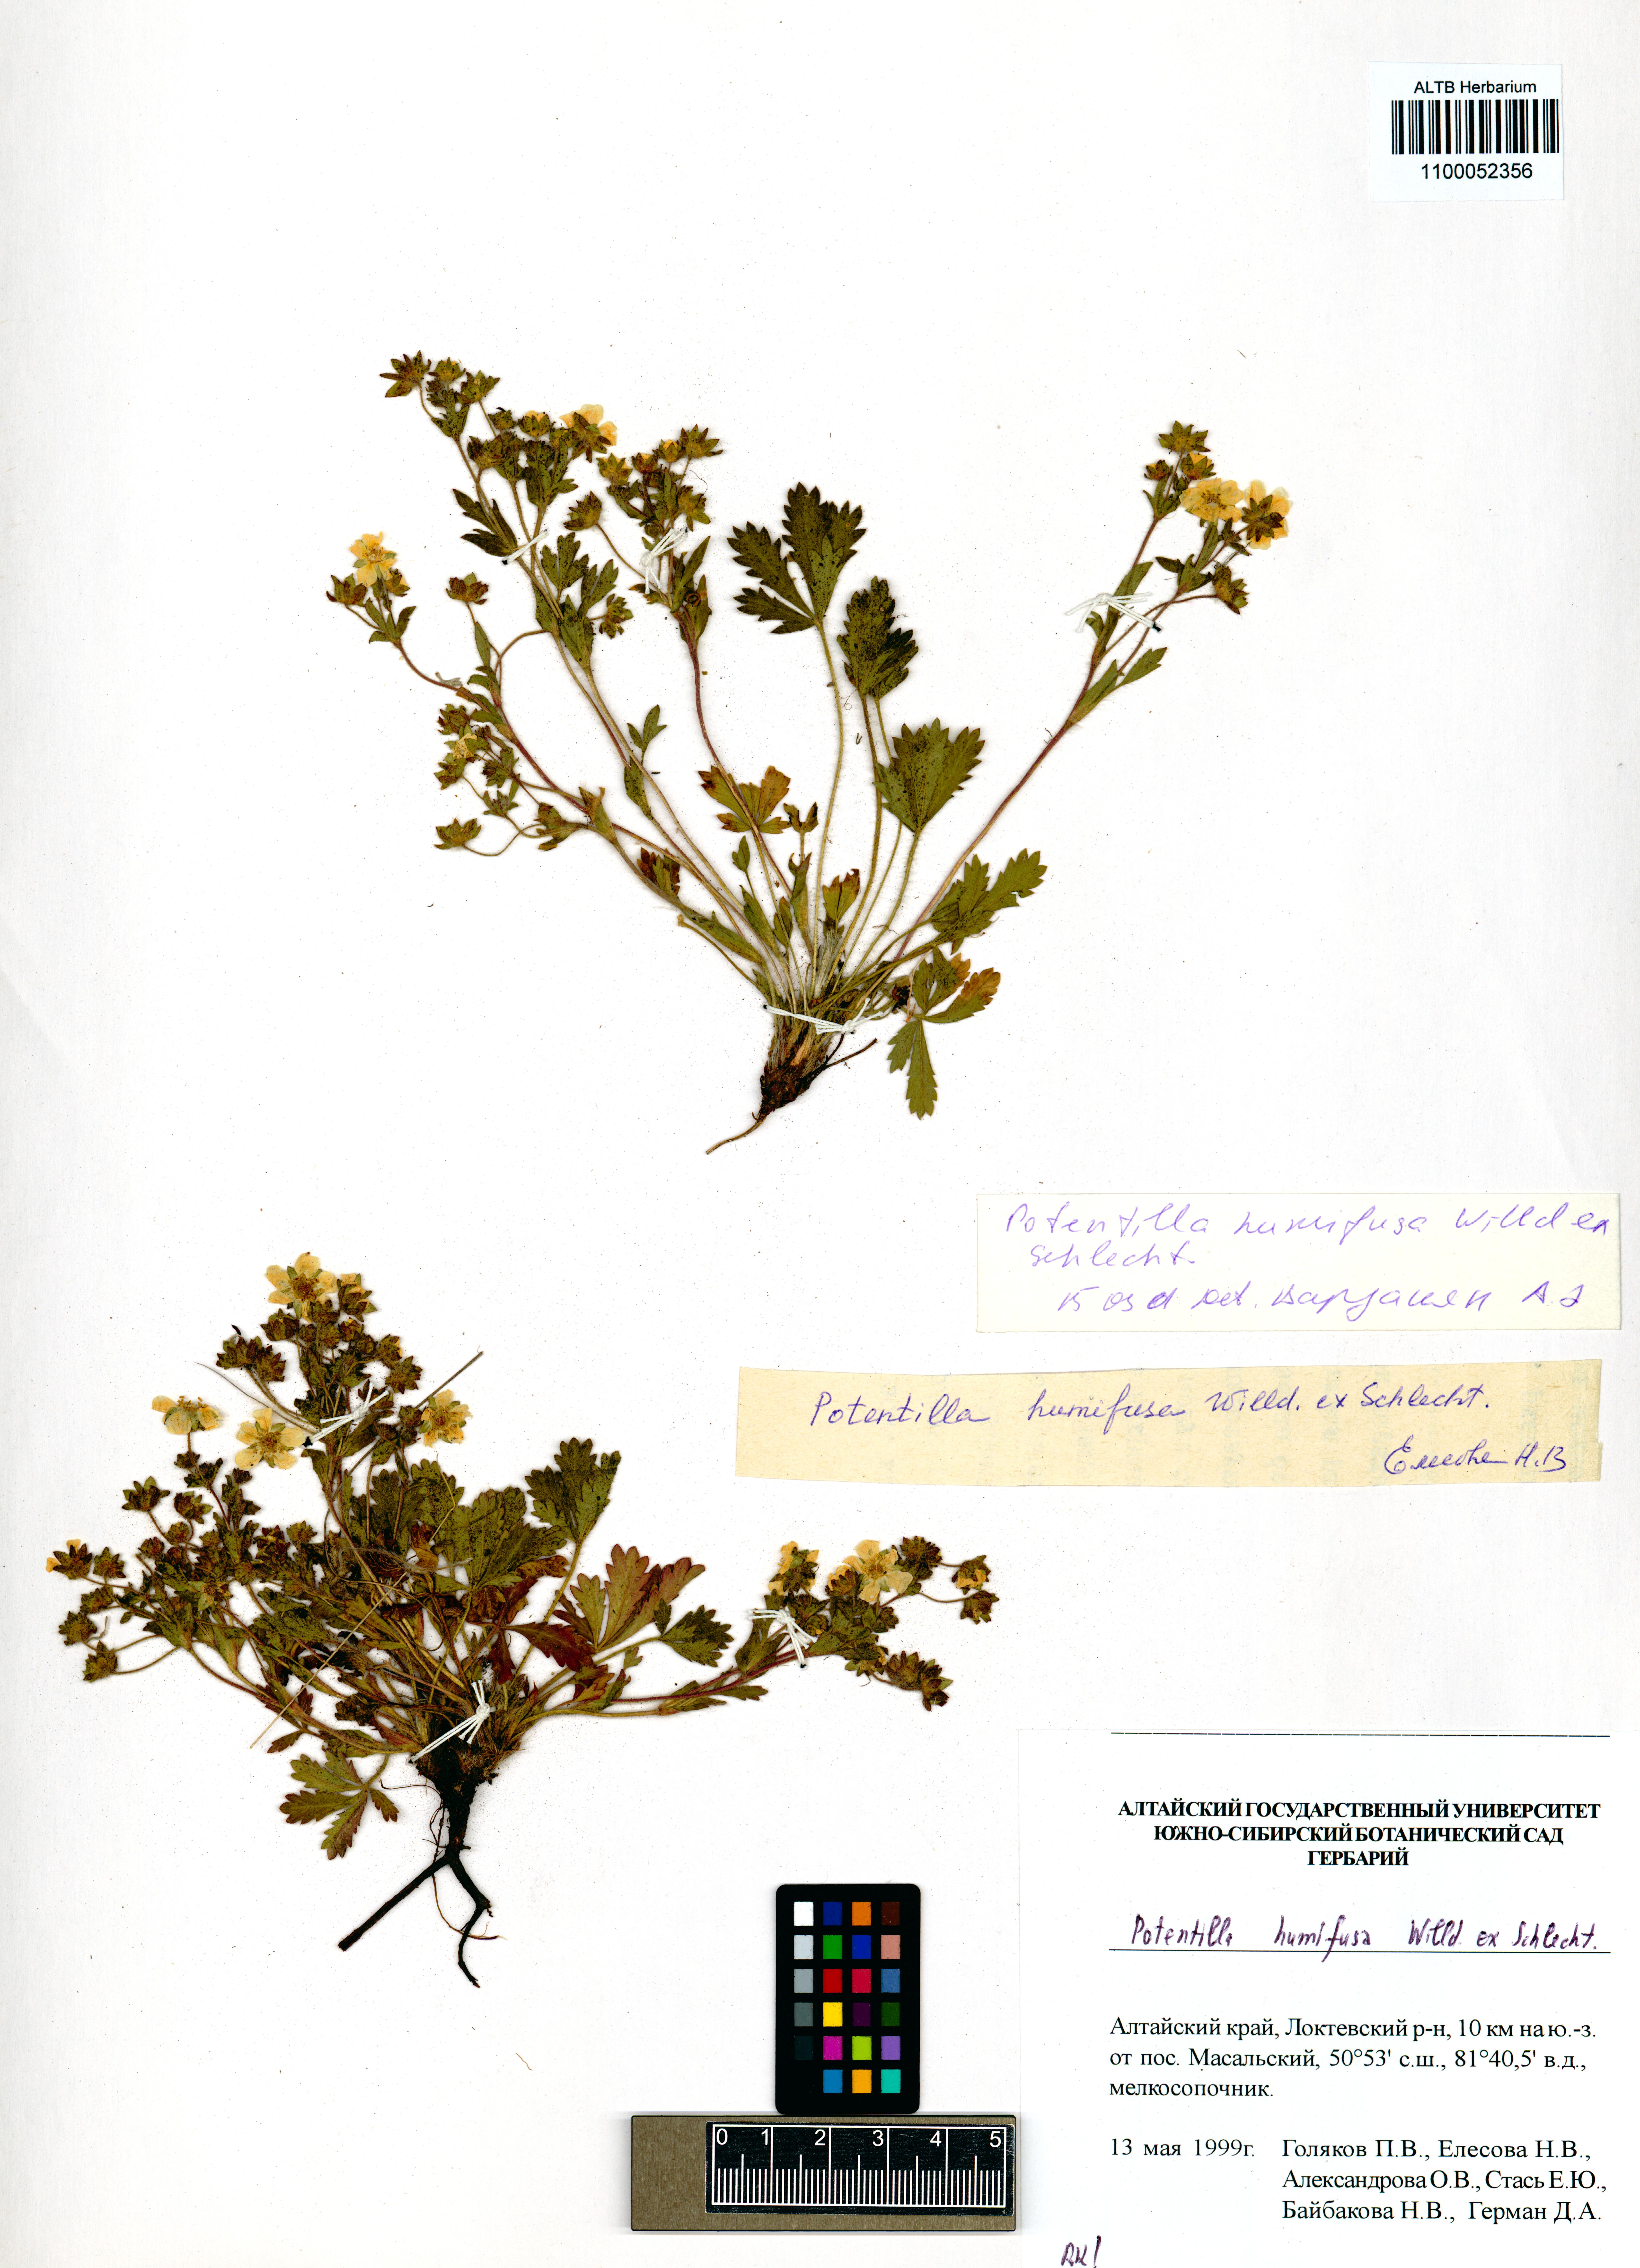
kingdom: Plantae
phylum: Tracheophyta
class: Magnoliopsida
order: Rosales
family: Rosaceae
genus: Potentilla
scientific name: Potentilla humifusa
